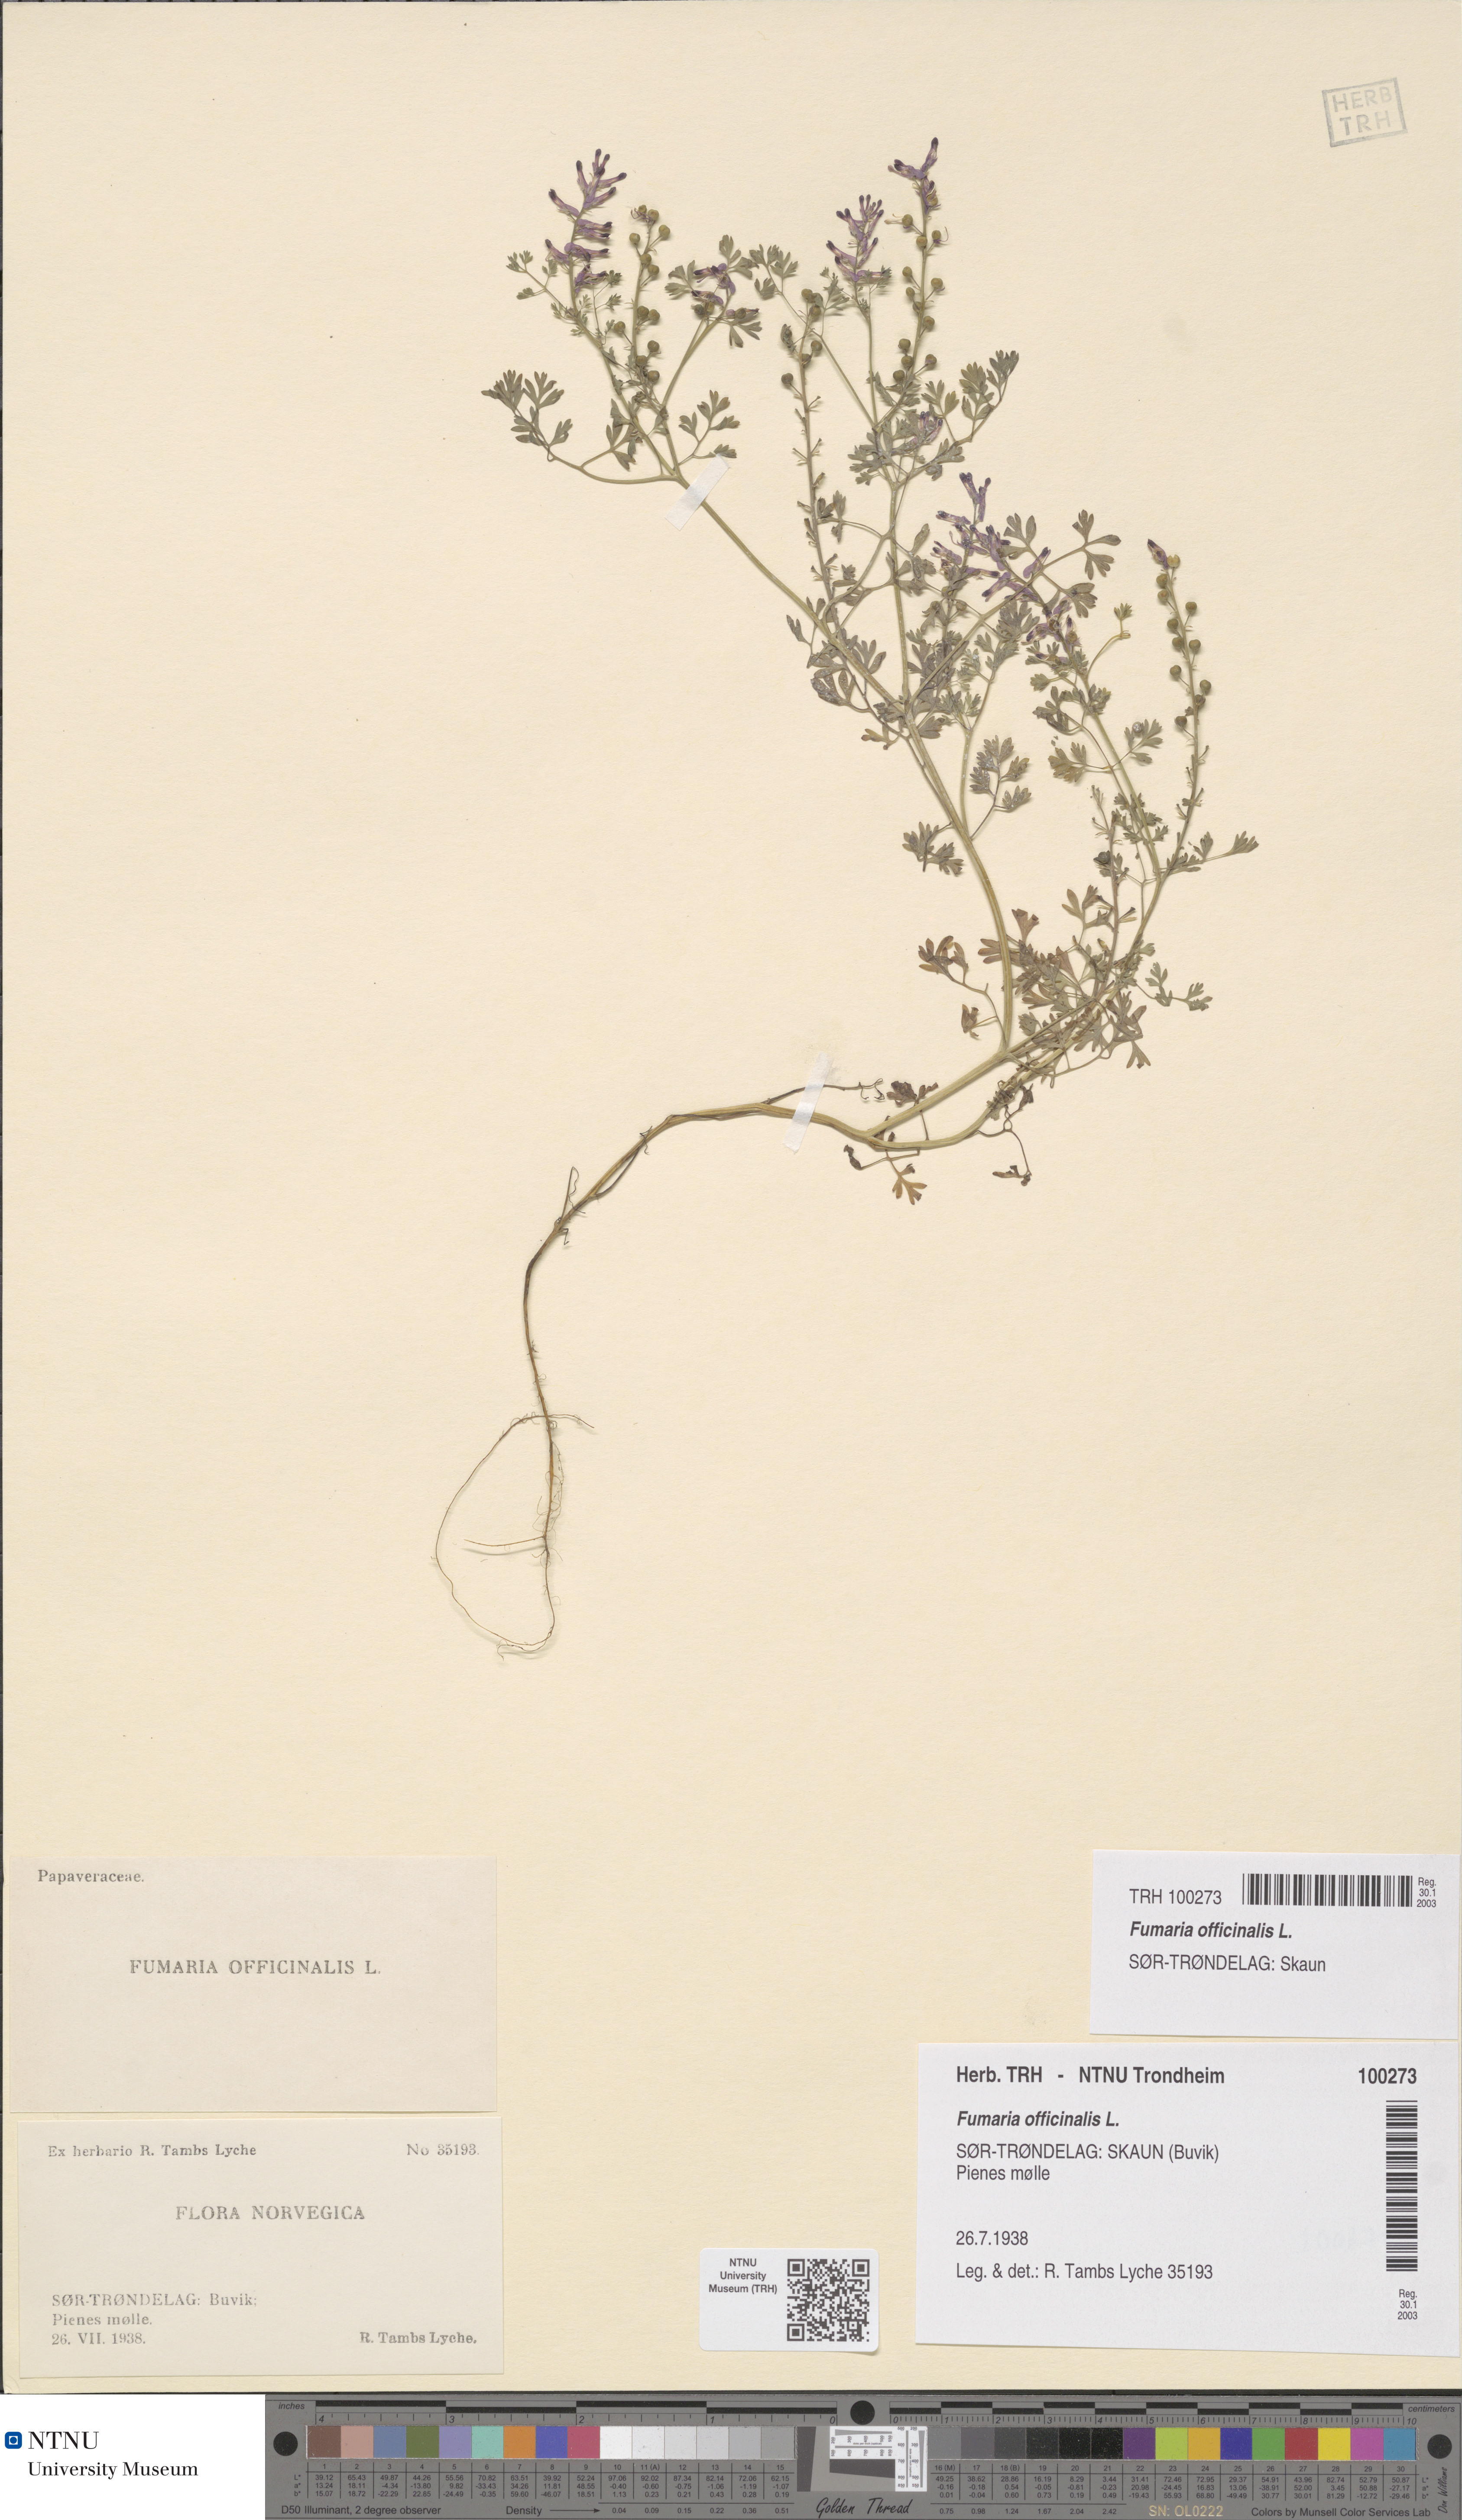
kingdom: Plantae
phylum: Tracheophyta
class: Magnoliopsida
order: Ranunculales
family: Papaveraceae
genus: Fumaria
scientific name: Fumaria officinalis
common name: Common fumitory
